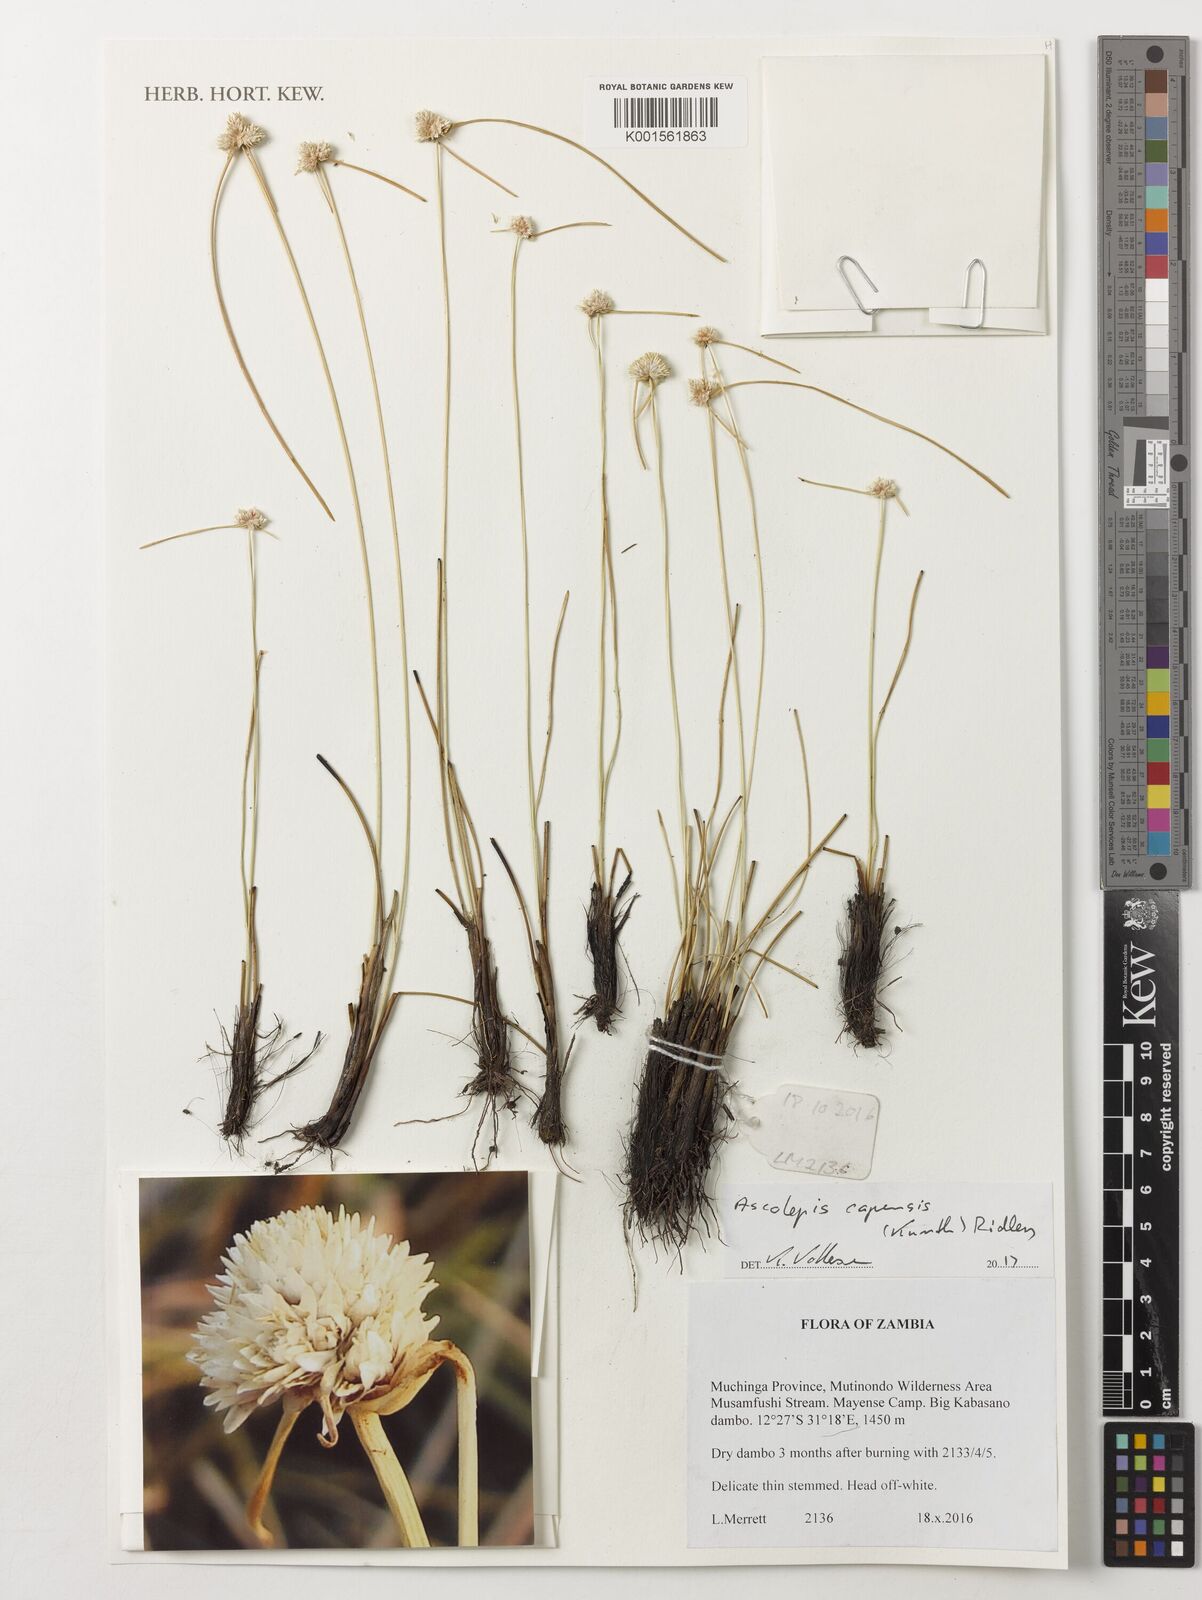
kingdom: Plantae
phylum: Tracheophyta
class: Liliopsida
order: Poales
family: Cyperaceae
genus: Cyperus
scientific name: Cyperus ascocapensis
